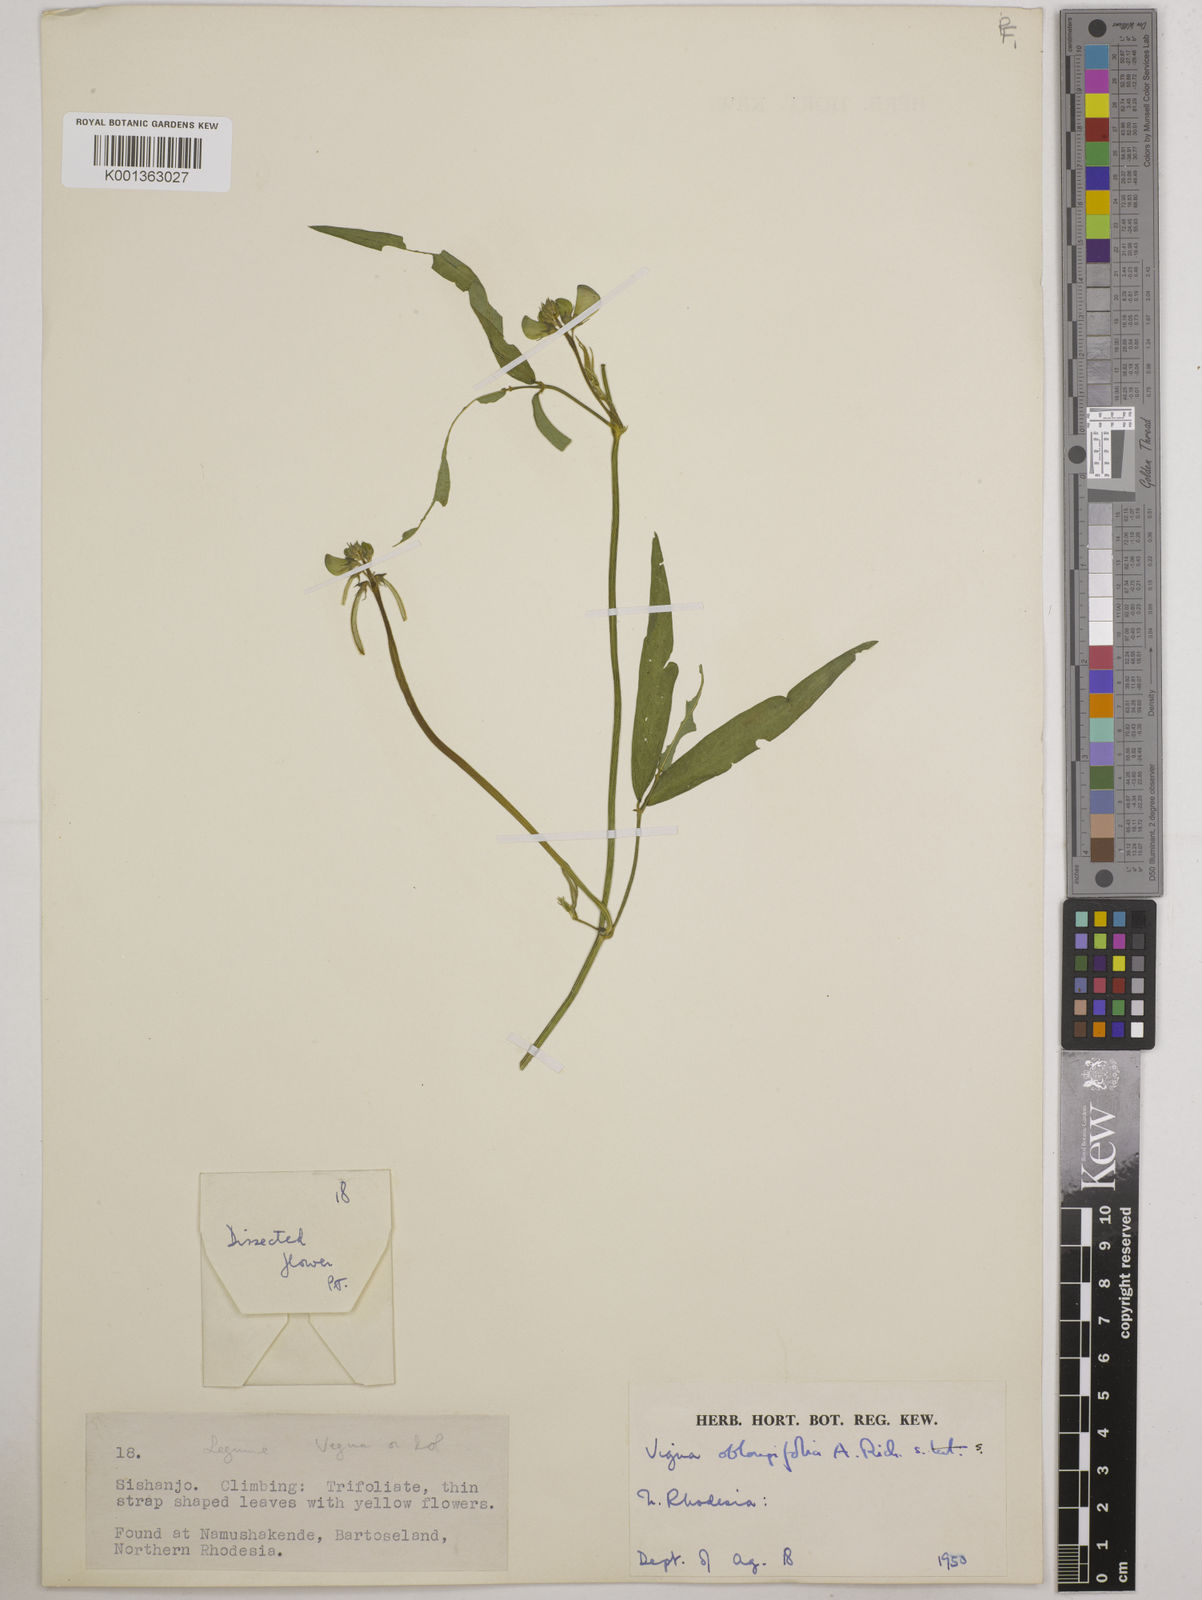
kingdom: Plantae
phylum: Tracheophyta
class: Magnoliopsida
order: Fabales
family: Fabaceae
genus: Vigna
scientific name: Vigna oblongifolia
